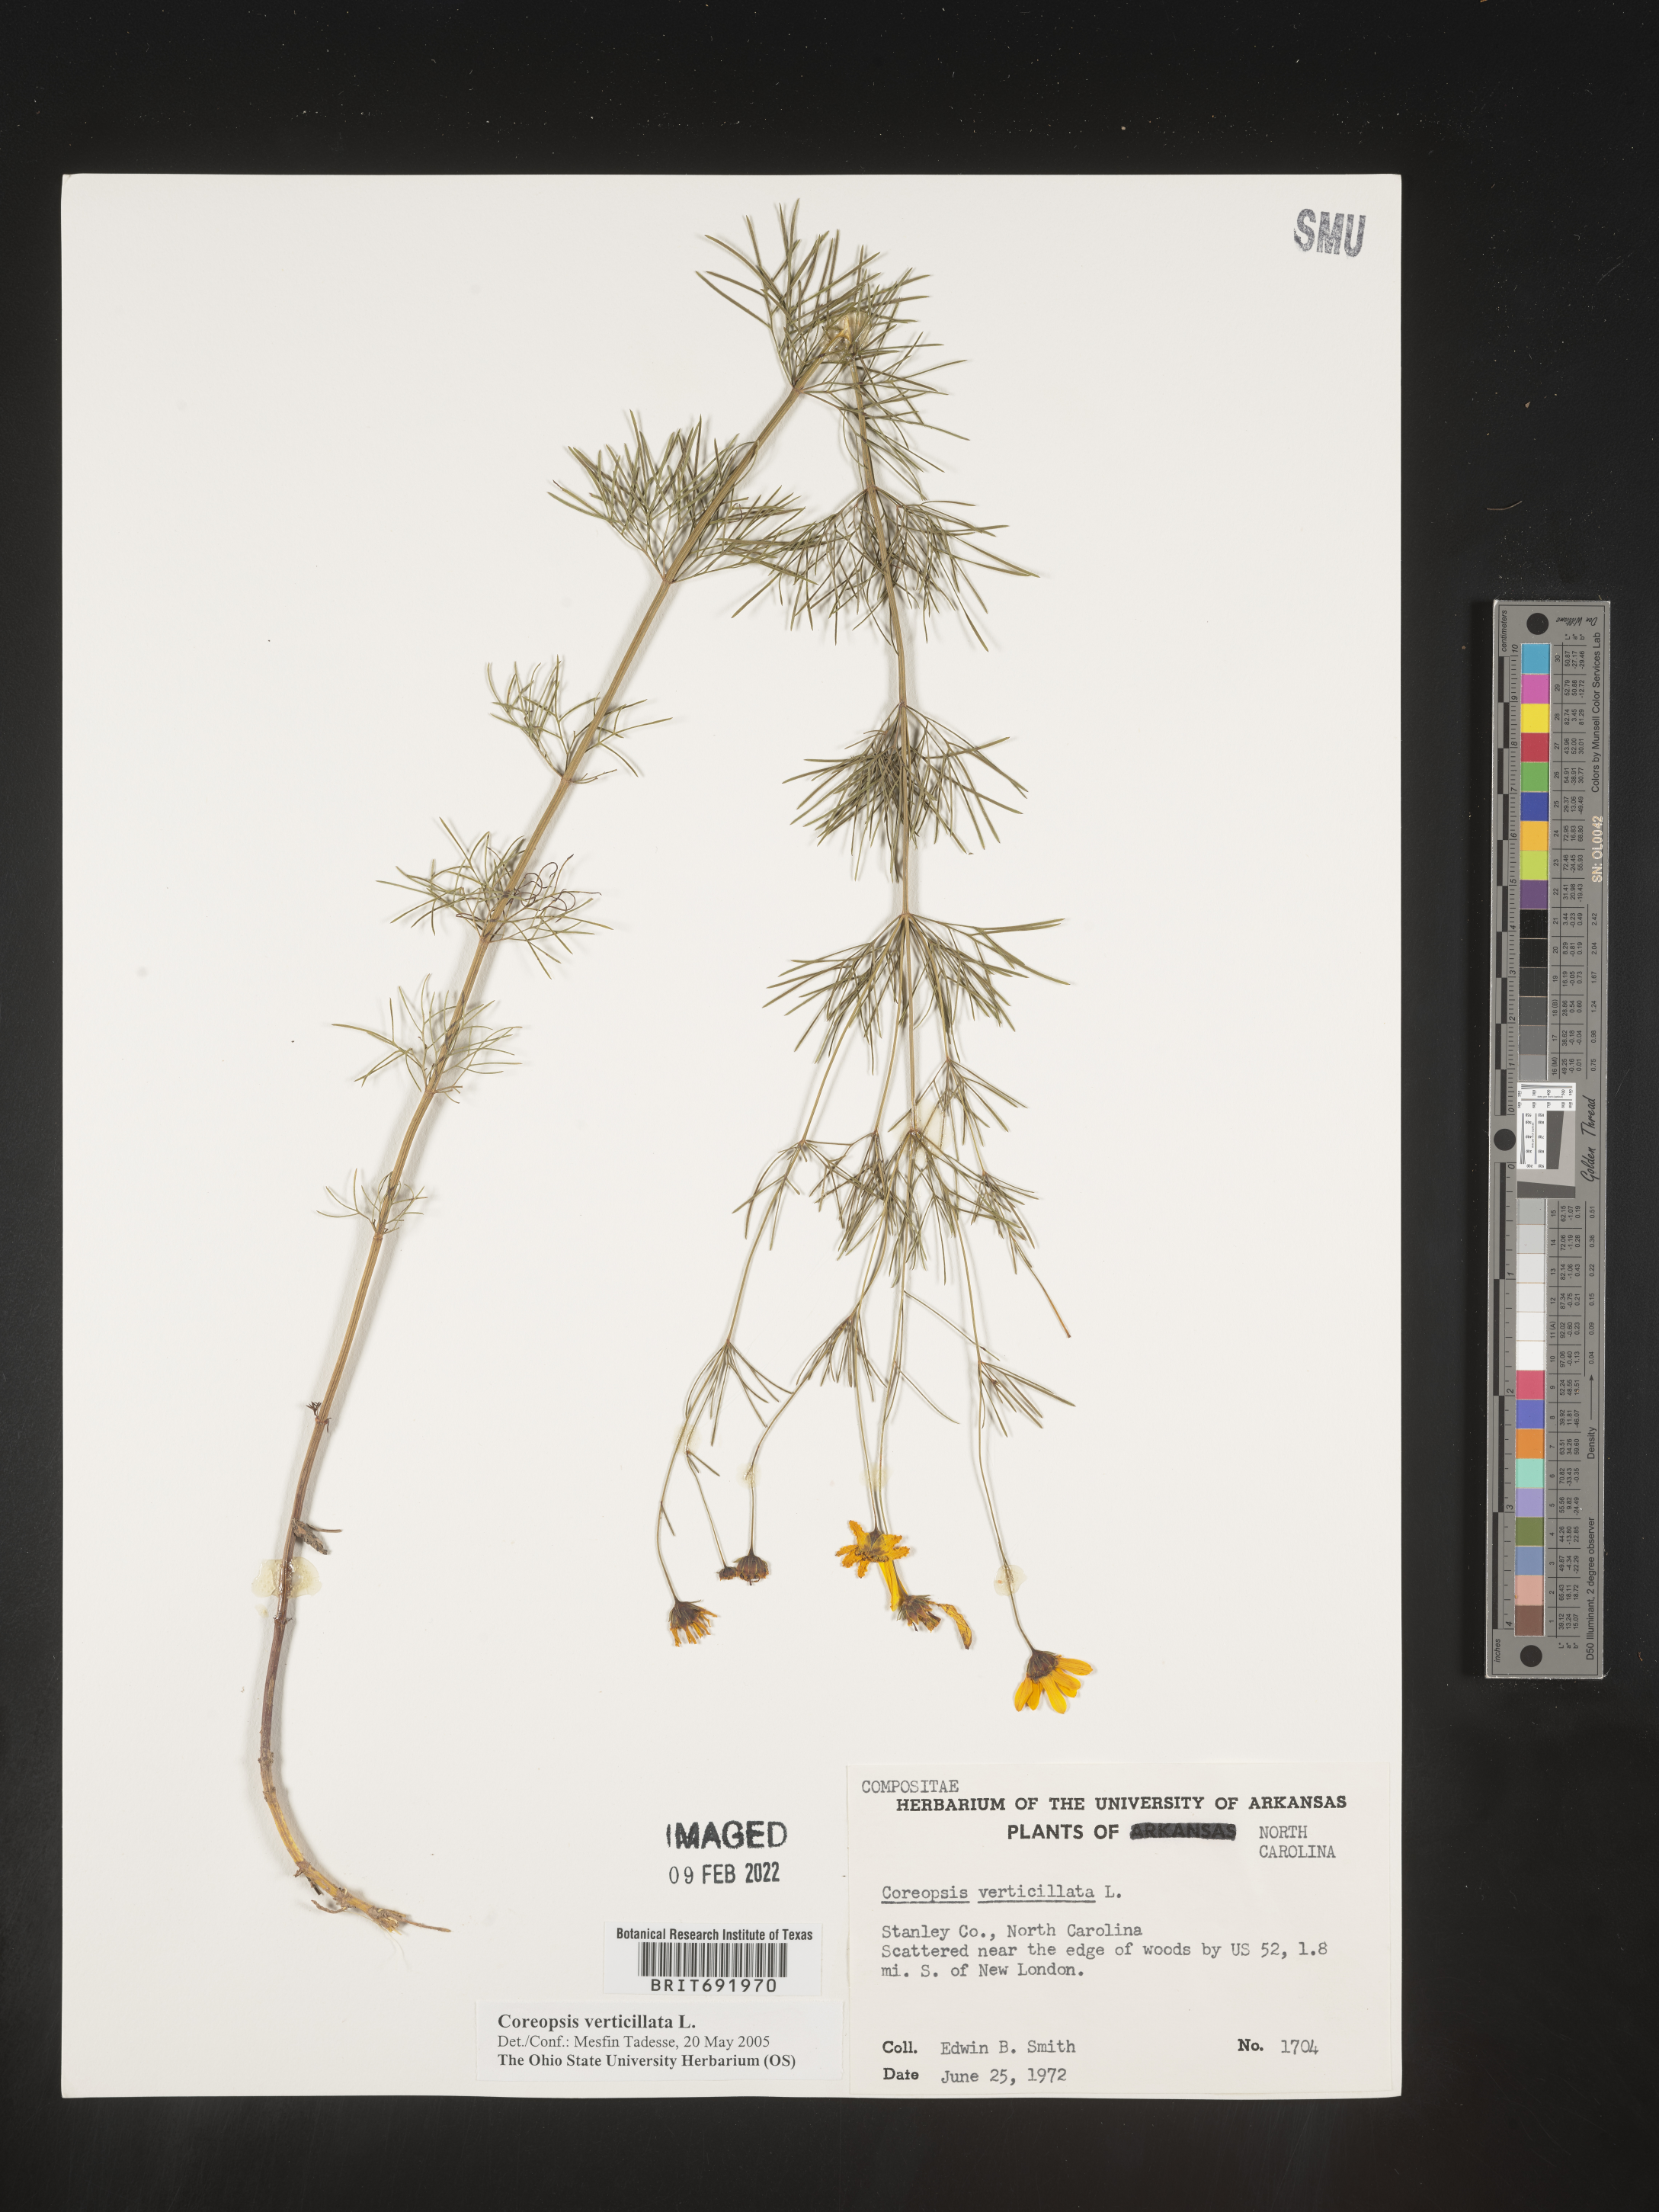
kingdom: Plantae
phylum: Tracheophyta
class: Magnoliopsida
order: Asterales
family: Asteraceae
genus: Coreopsis
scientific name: Coreopsis verticillata
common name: Whorled tickseed
